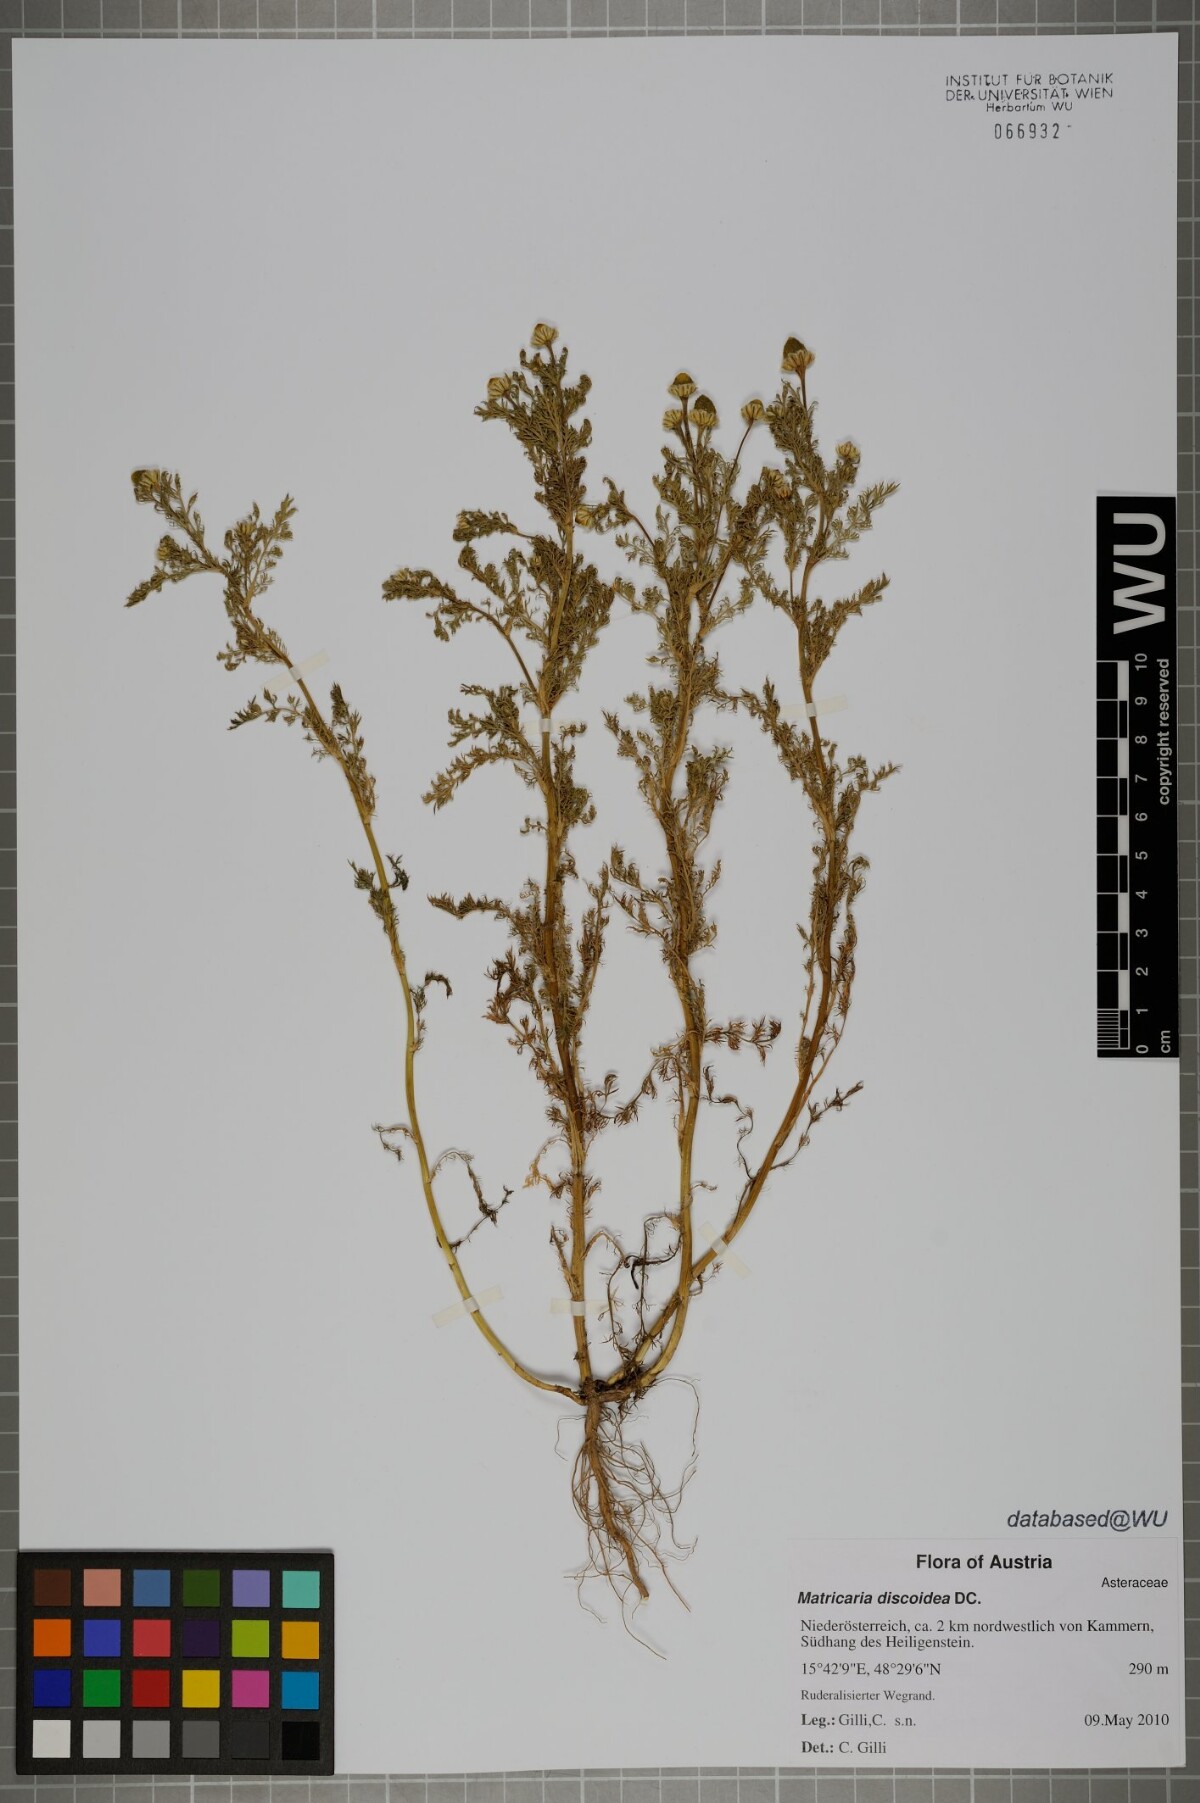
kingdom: Plantae
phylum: Tracheophyta
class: Magnoliopsida
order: Asterales
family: Asteraceae
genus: Matricaria
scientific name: Matricaria discoidea
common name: Disc mayweed
